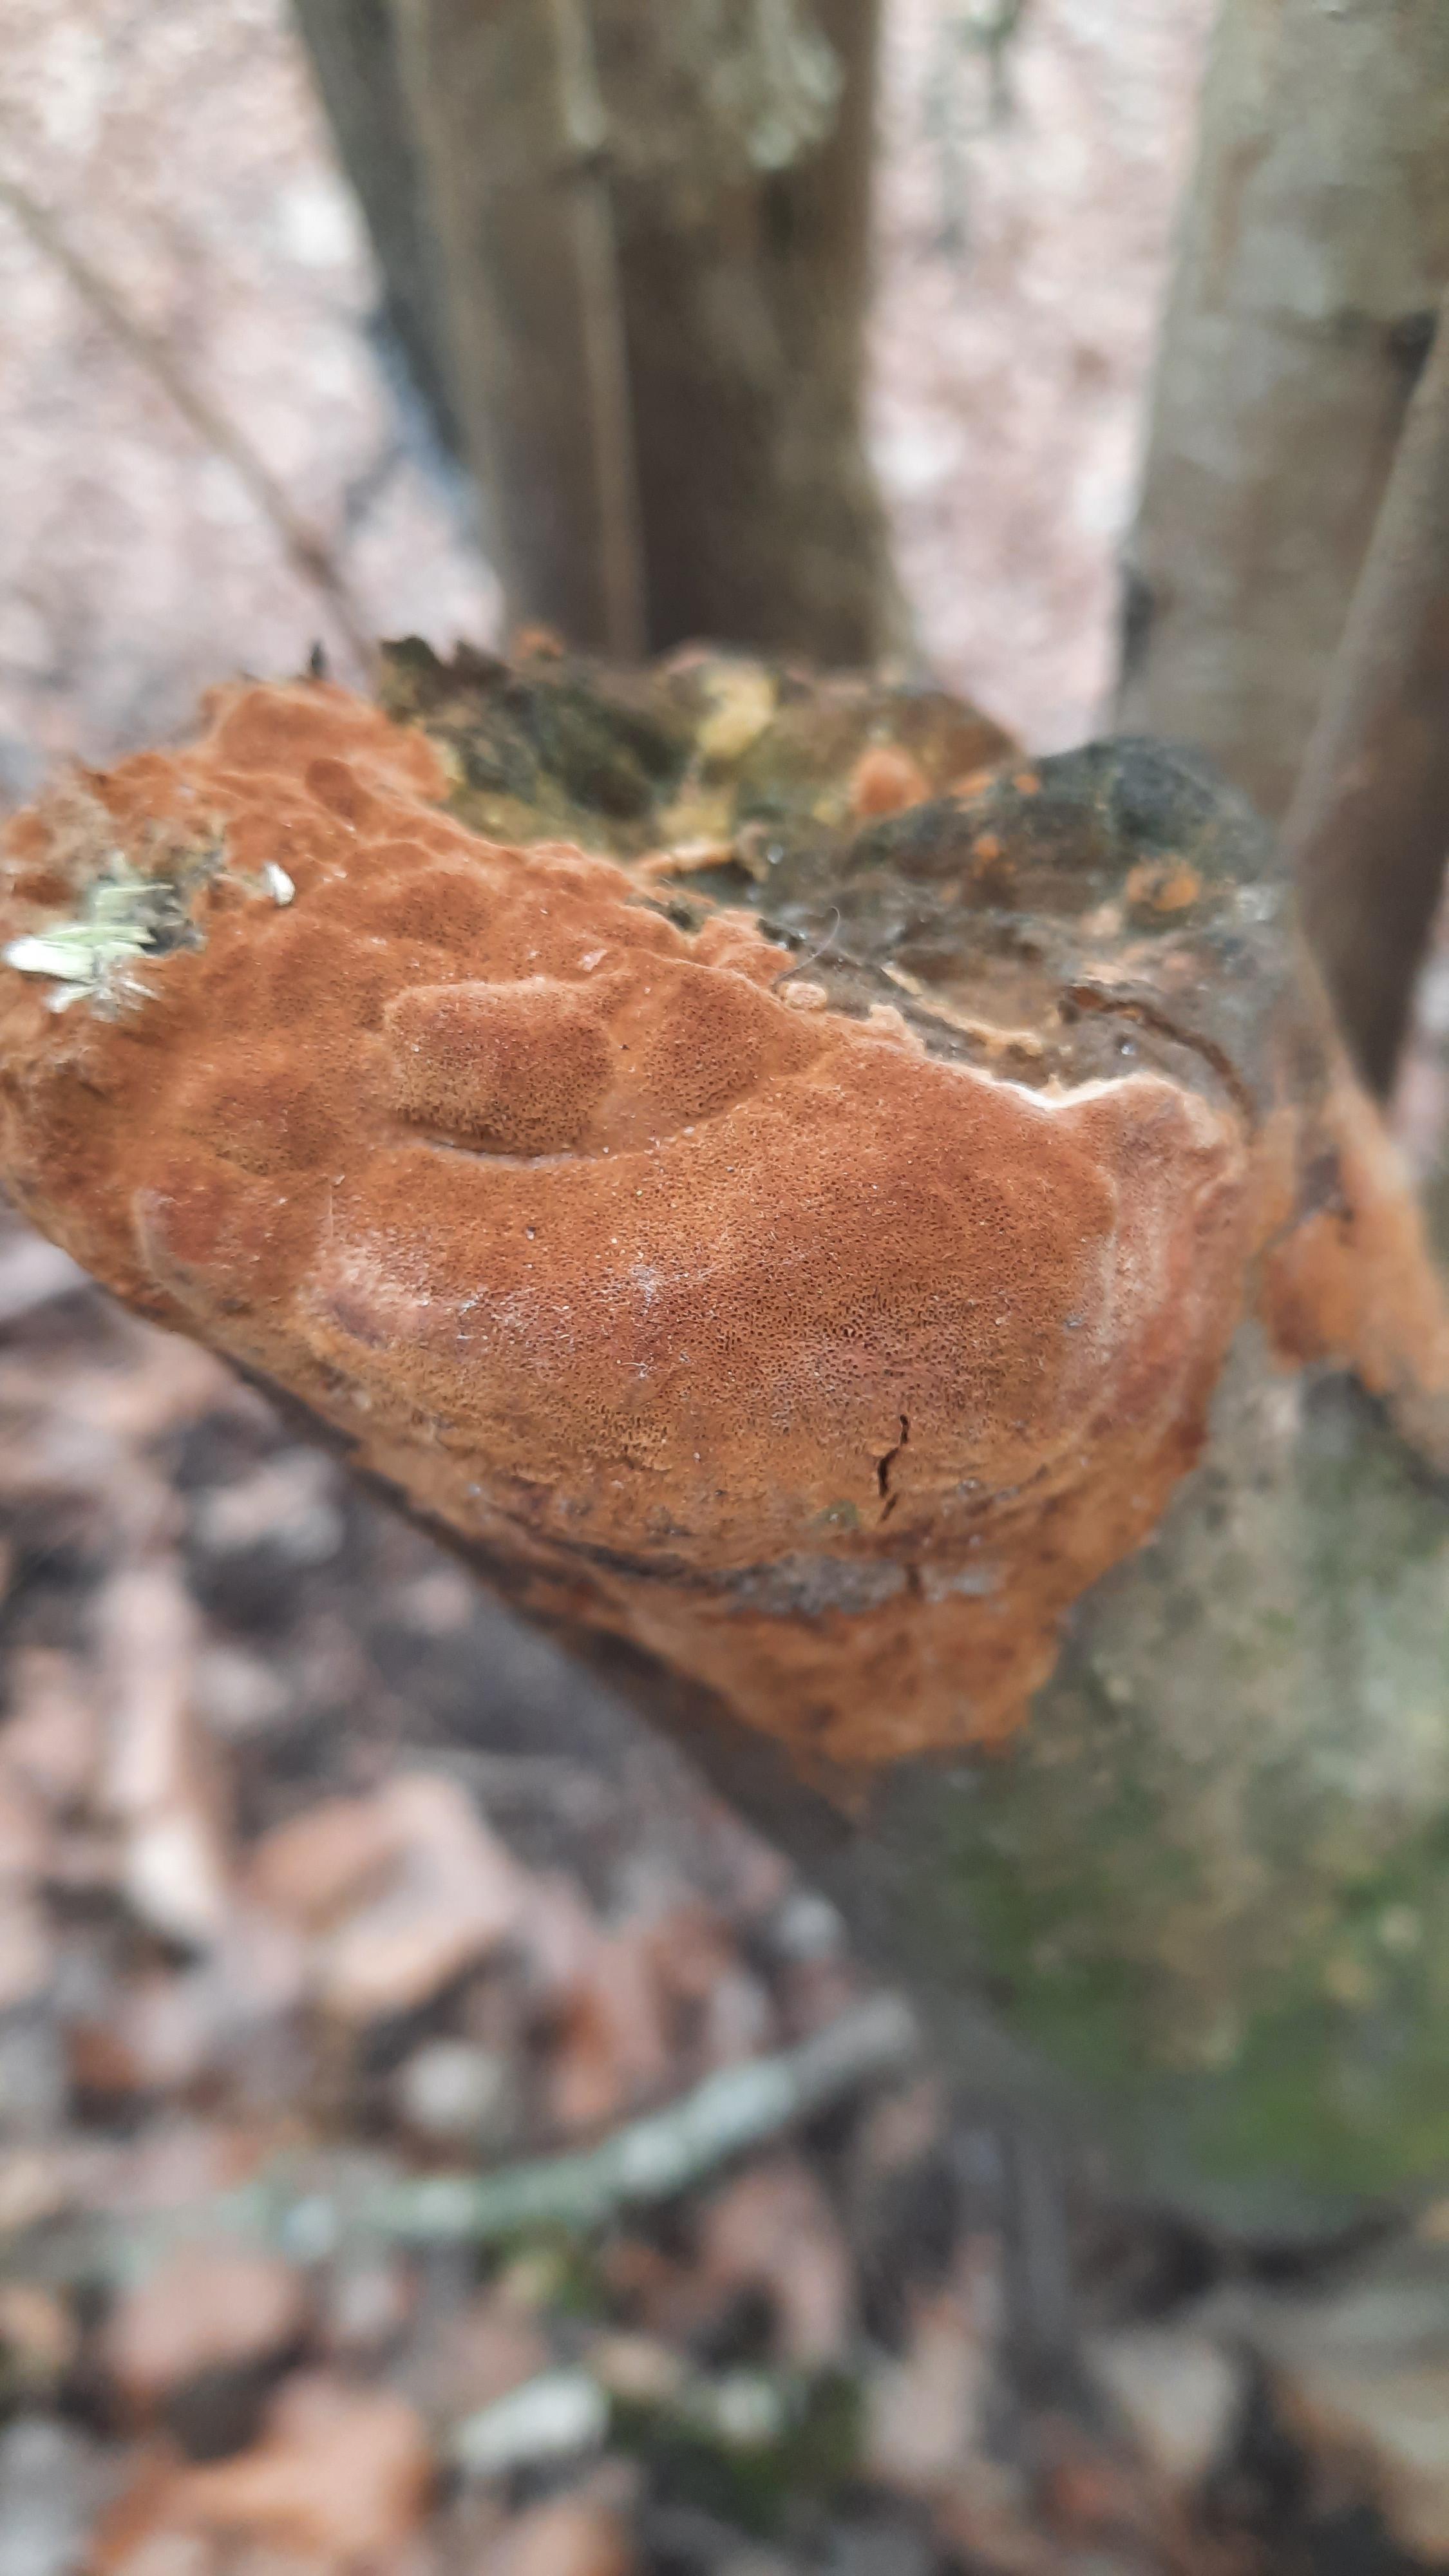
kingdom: Fungi
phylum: Basidiomycota
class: Agaricomycetes
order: Hymenochaetales
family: Hymenochaetaceae
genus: Fuscoporia
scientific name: Fuscoporia ferrea
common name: skorpe-ildporesvamp
